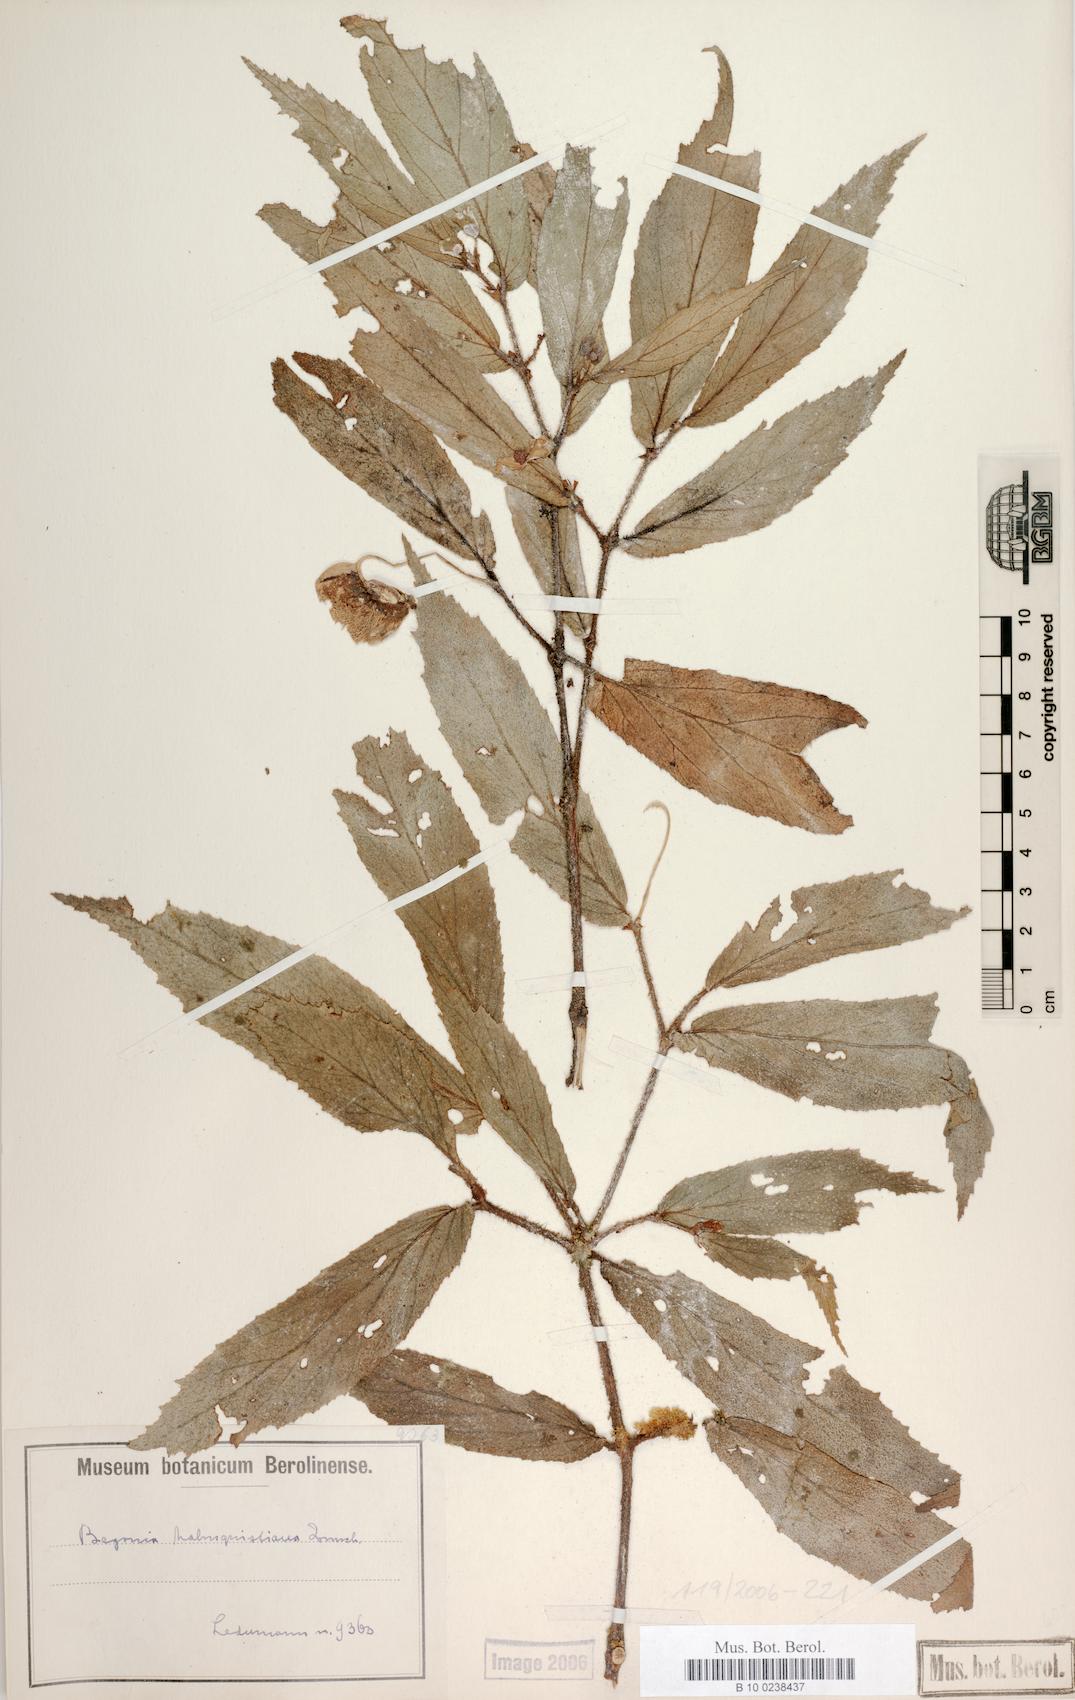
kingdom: Plantae
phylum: Tracheophyta
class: Magnoliopsida
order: Cucurbitales
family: Begoniaceae
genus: Begonia
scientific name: Begonia malmquistiana
